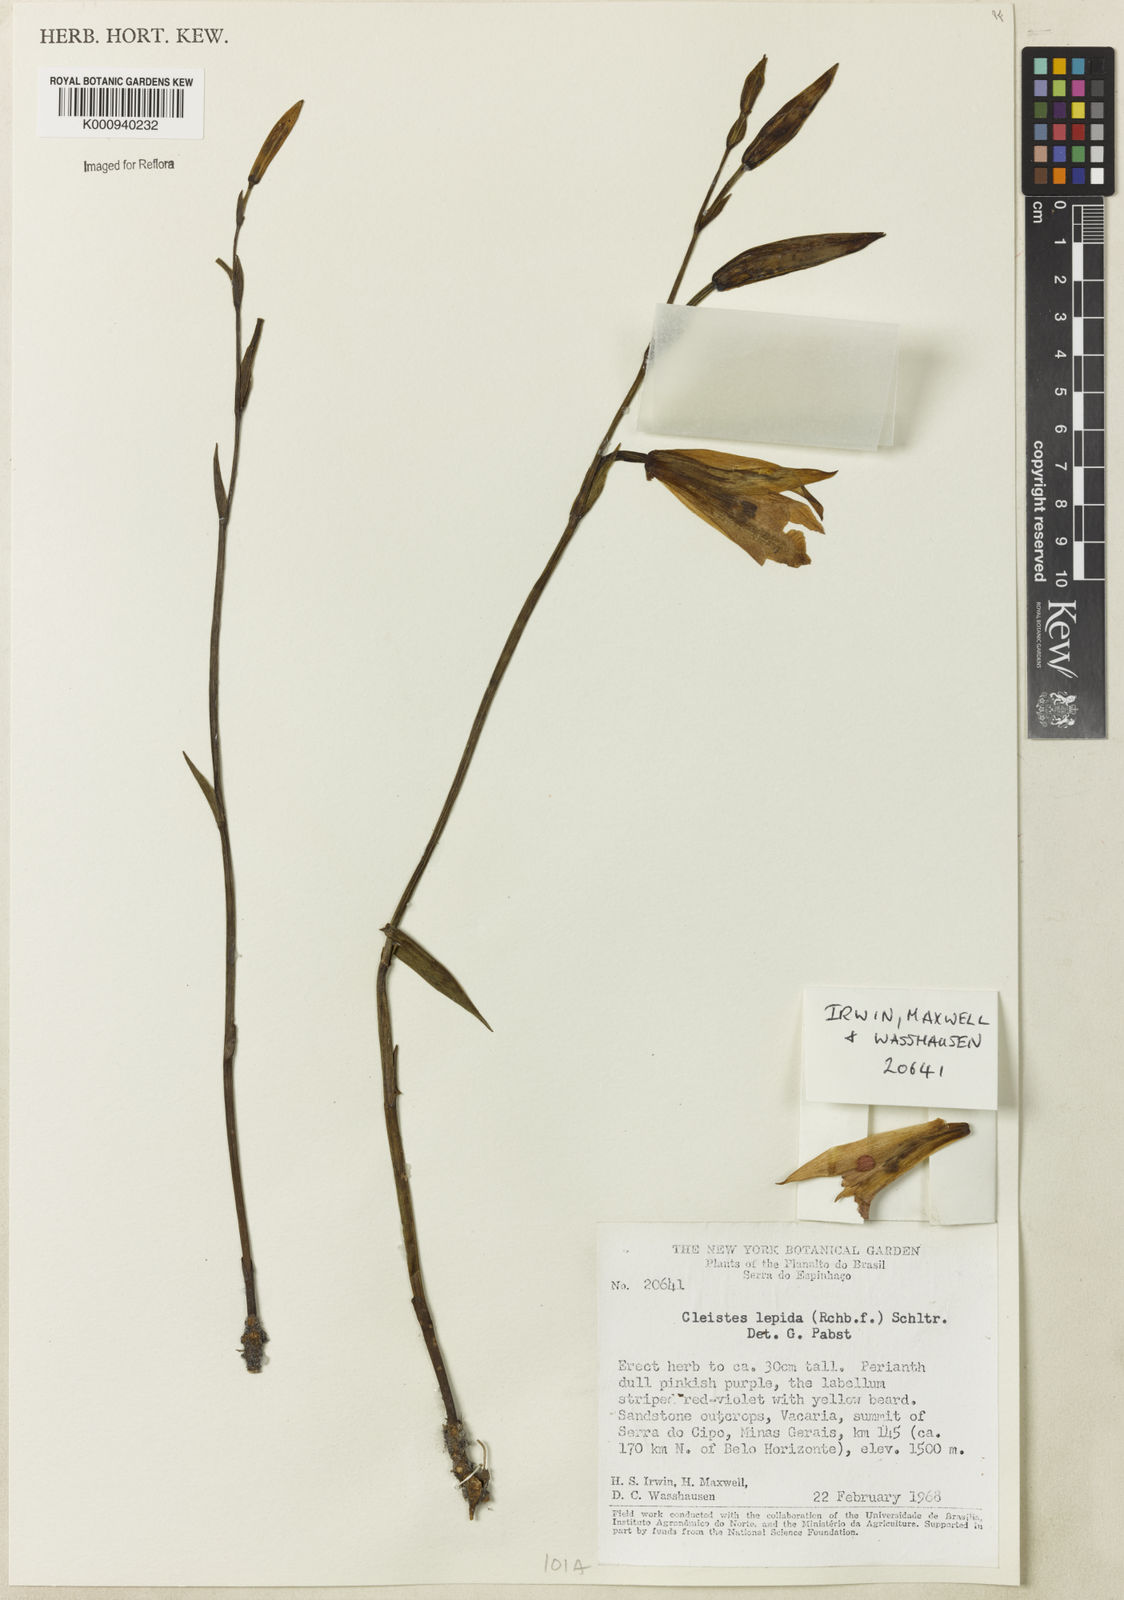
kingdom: Plantae
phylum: Tracheophyta
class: Liliopsida
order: Asparagales
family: Orchidaceae
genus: Cleistes
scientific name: Cleistes montana
